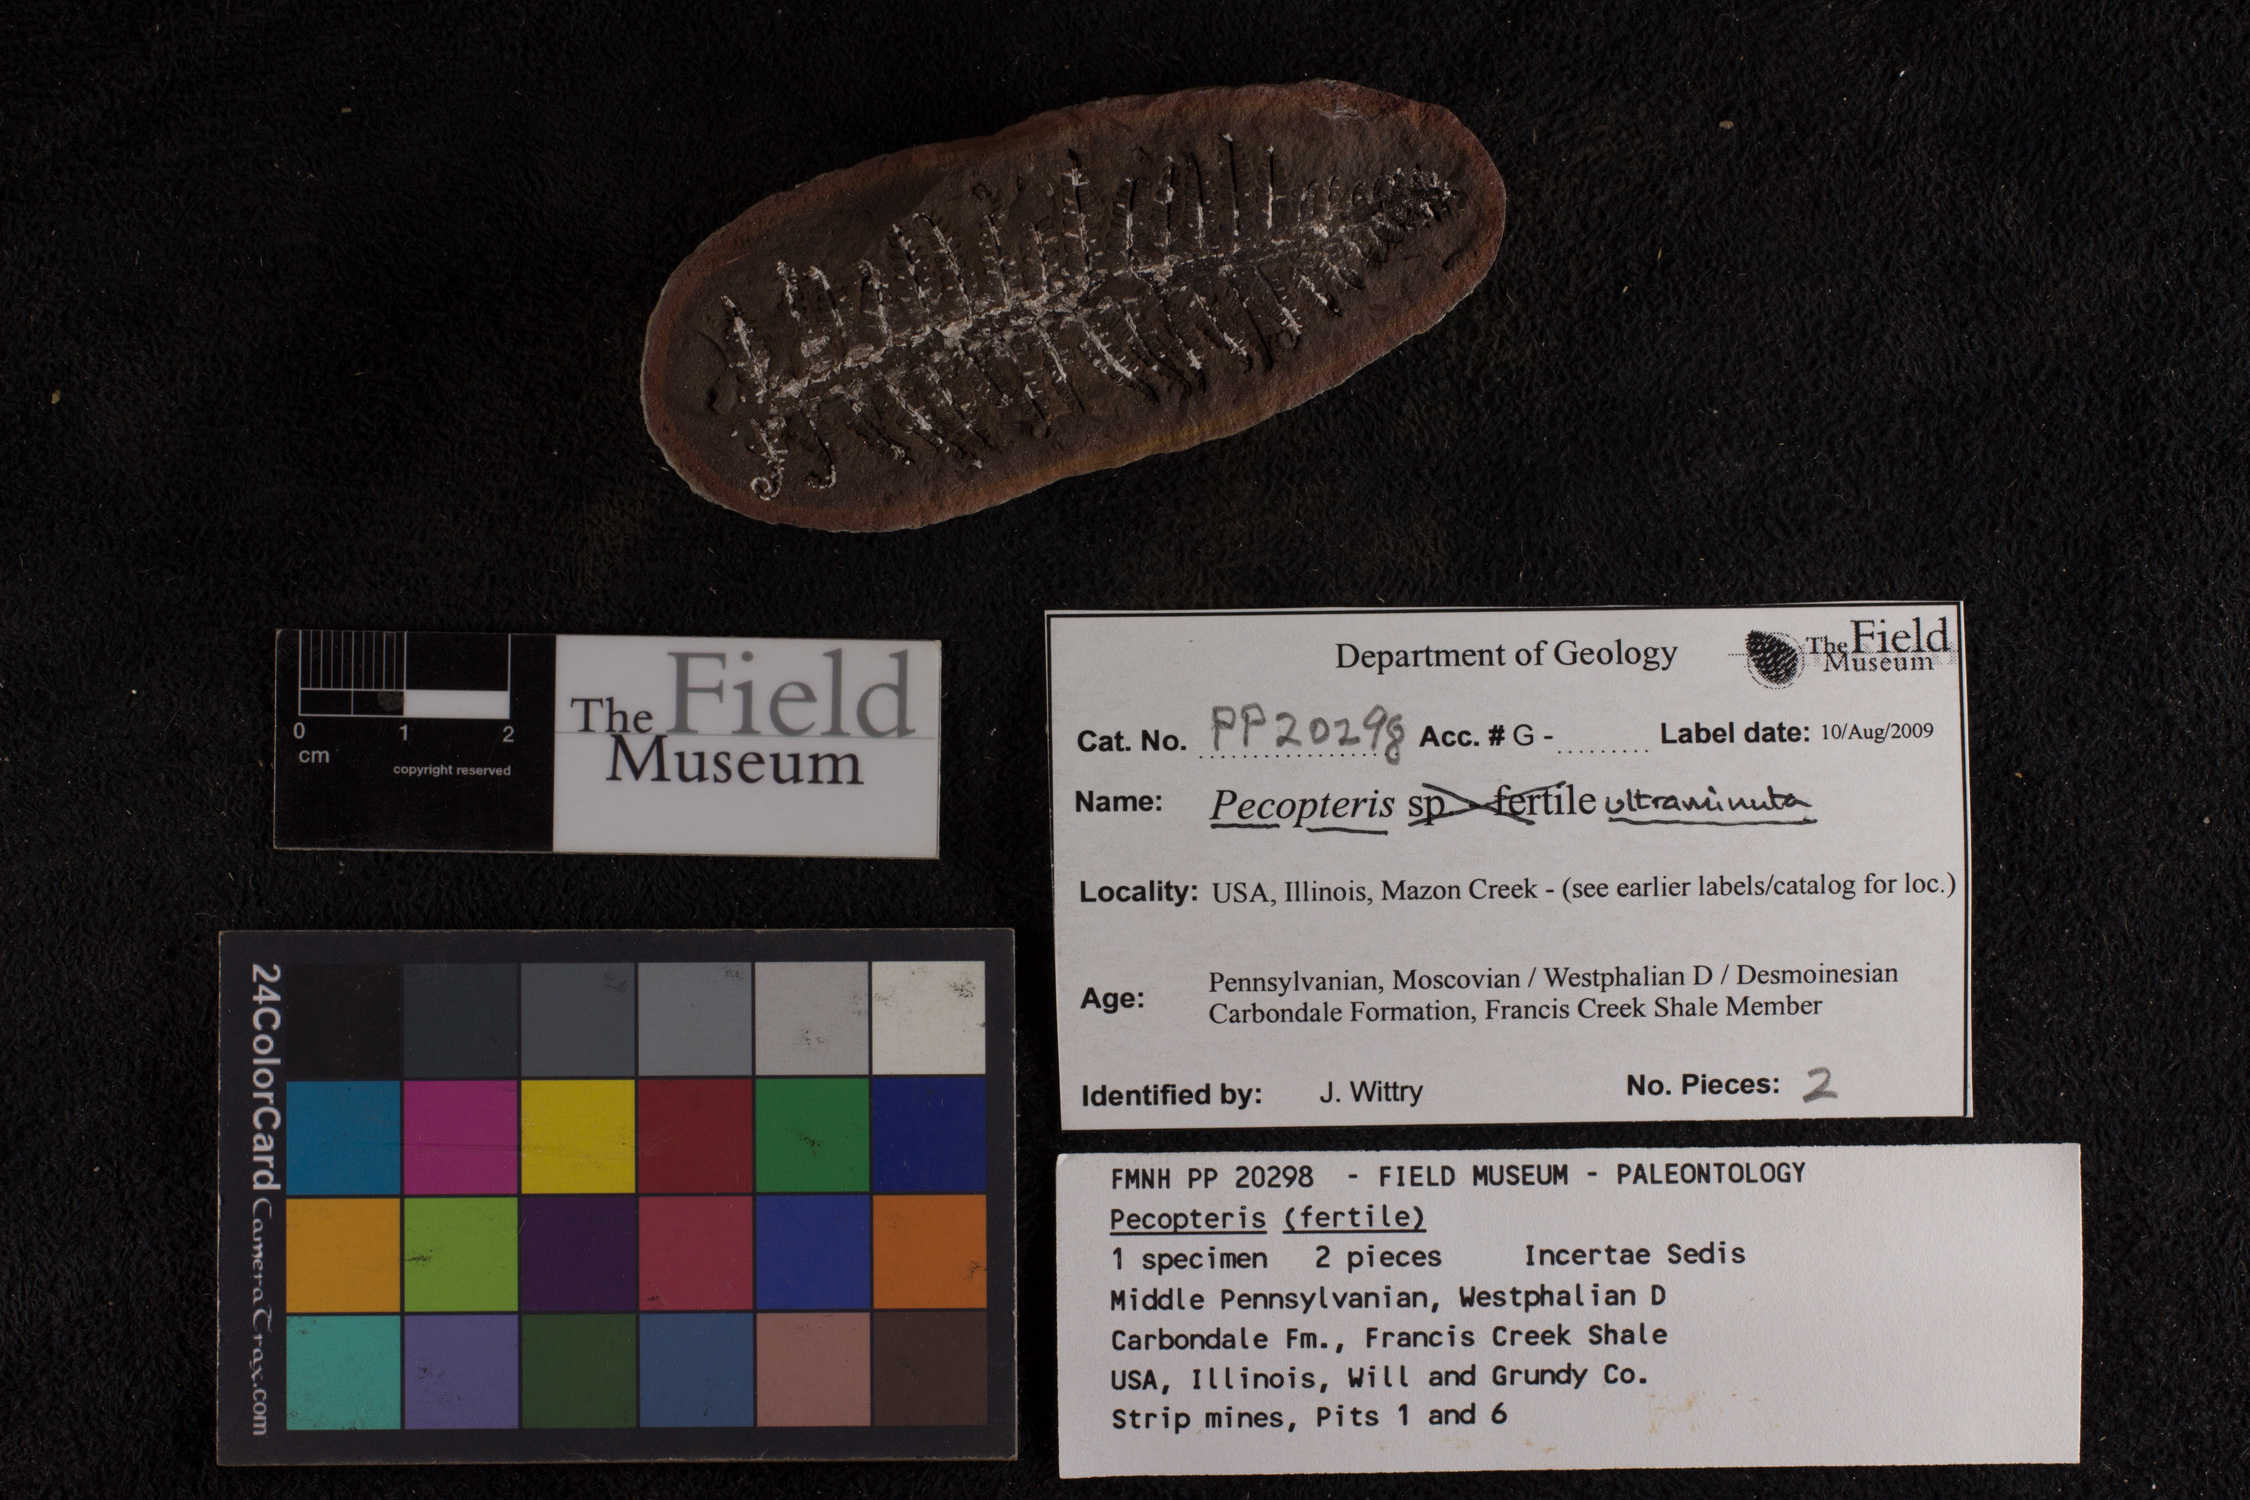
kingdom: Plantae
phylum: Tracheophyta
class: Polypodiopsida
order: Marattiales
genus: Cyathocarpus
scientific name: Cyathocarpus
